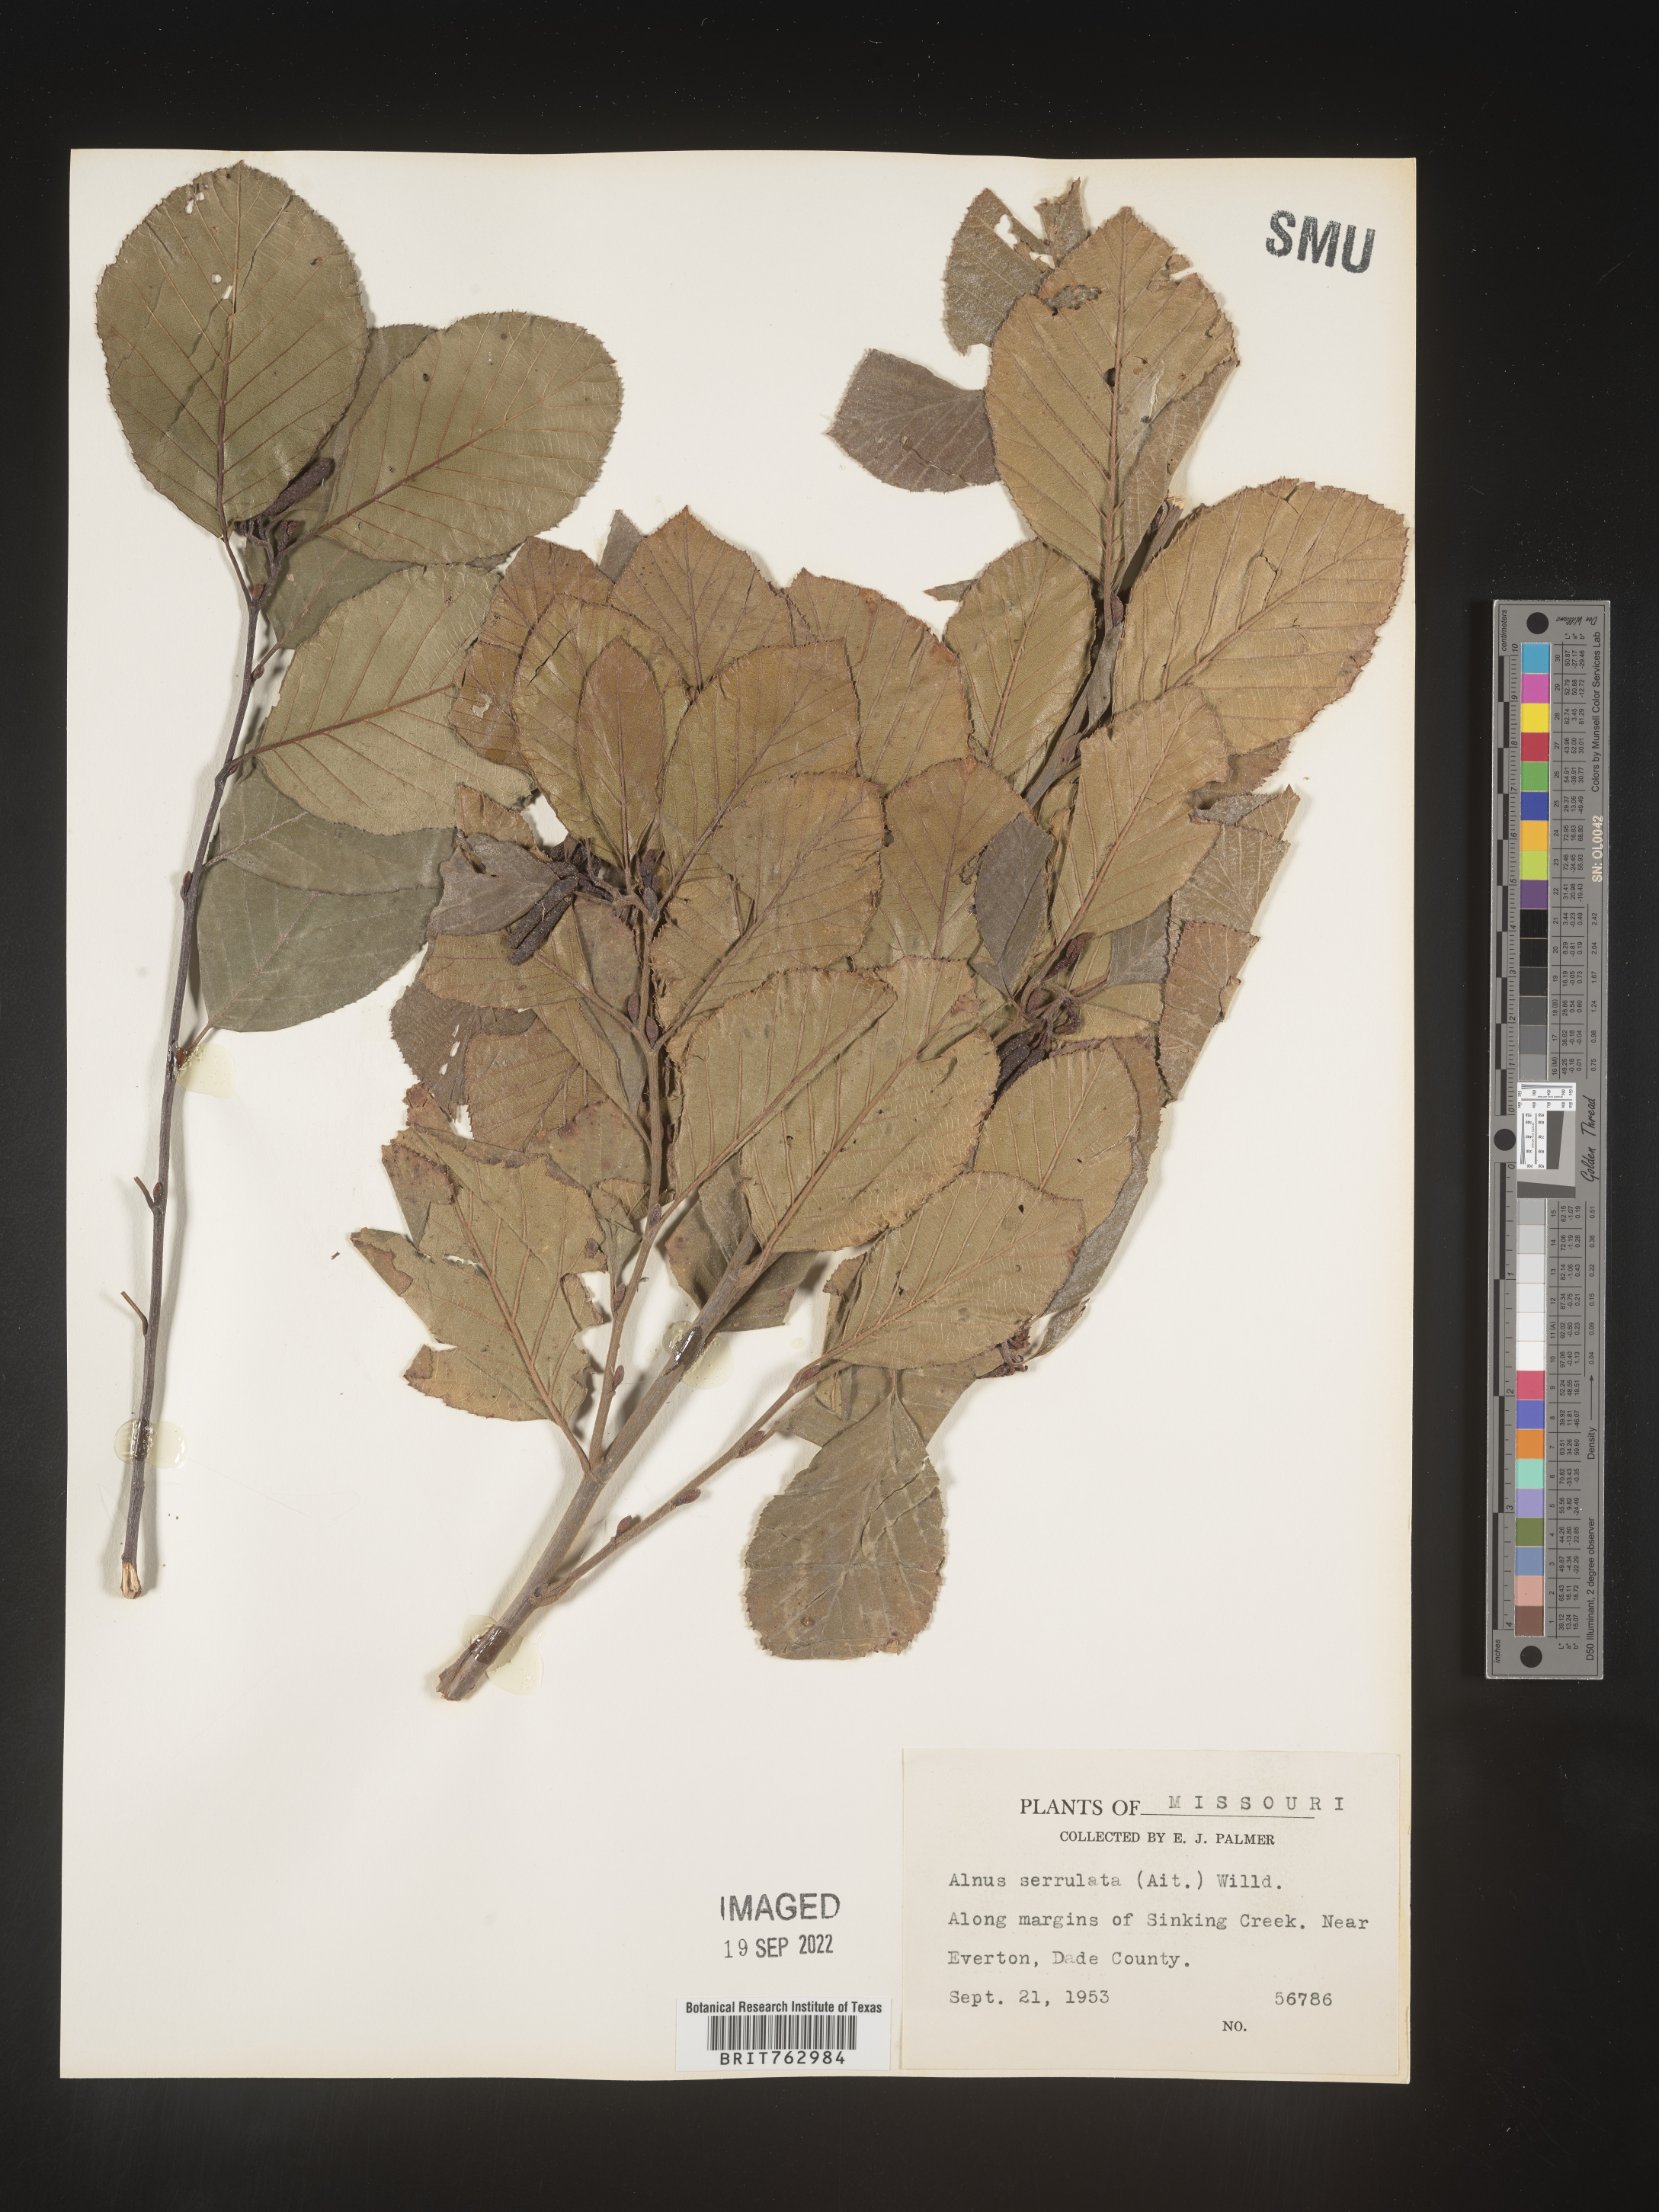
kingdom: Plantae
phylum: Tracheophyta
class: Magnoliopsida
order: Fagales
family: Betulaceae
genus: Alnus
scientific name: Alnus serrulata
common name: Hazel alder
